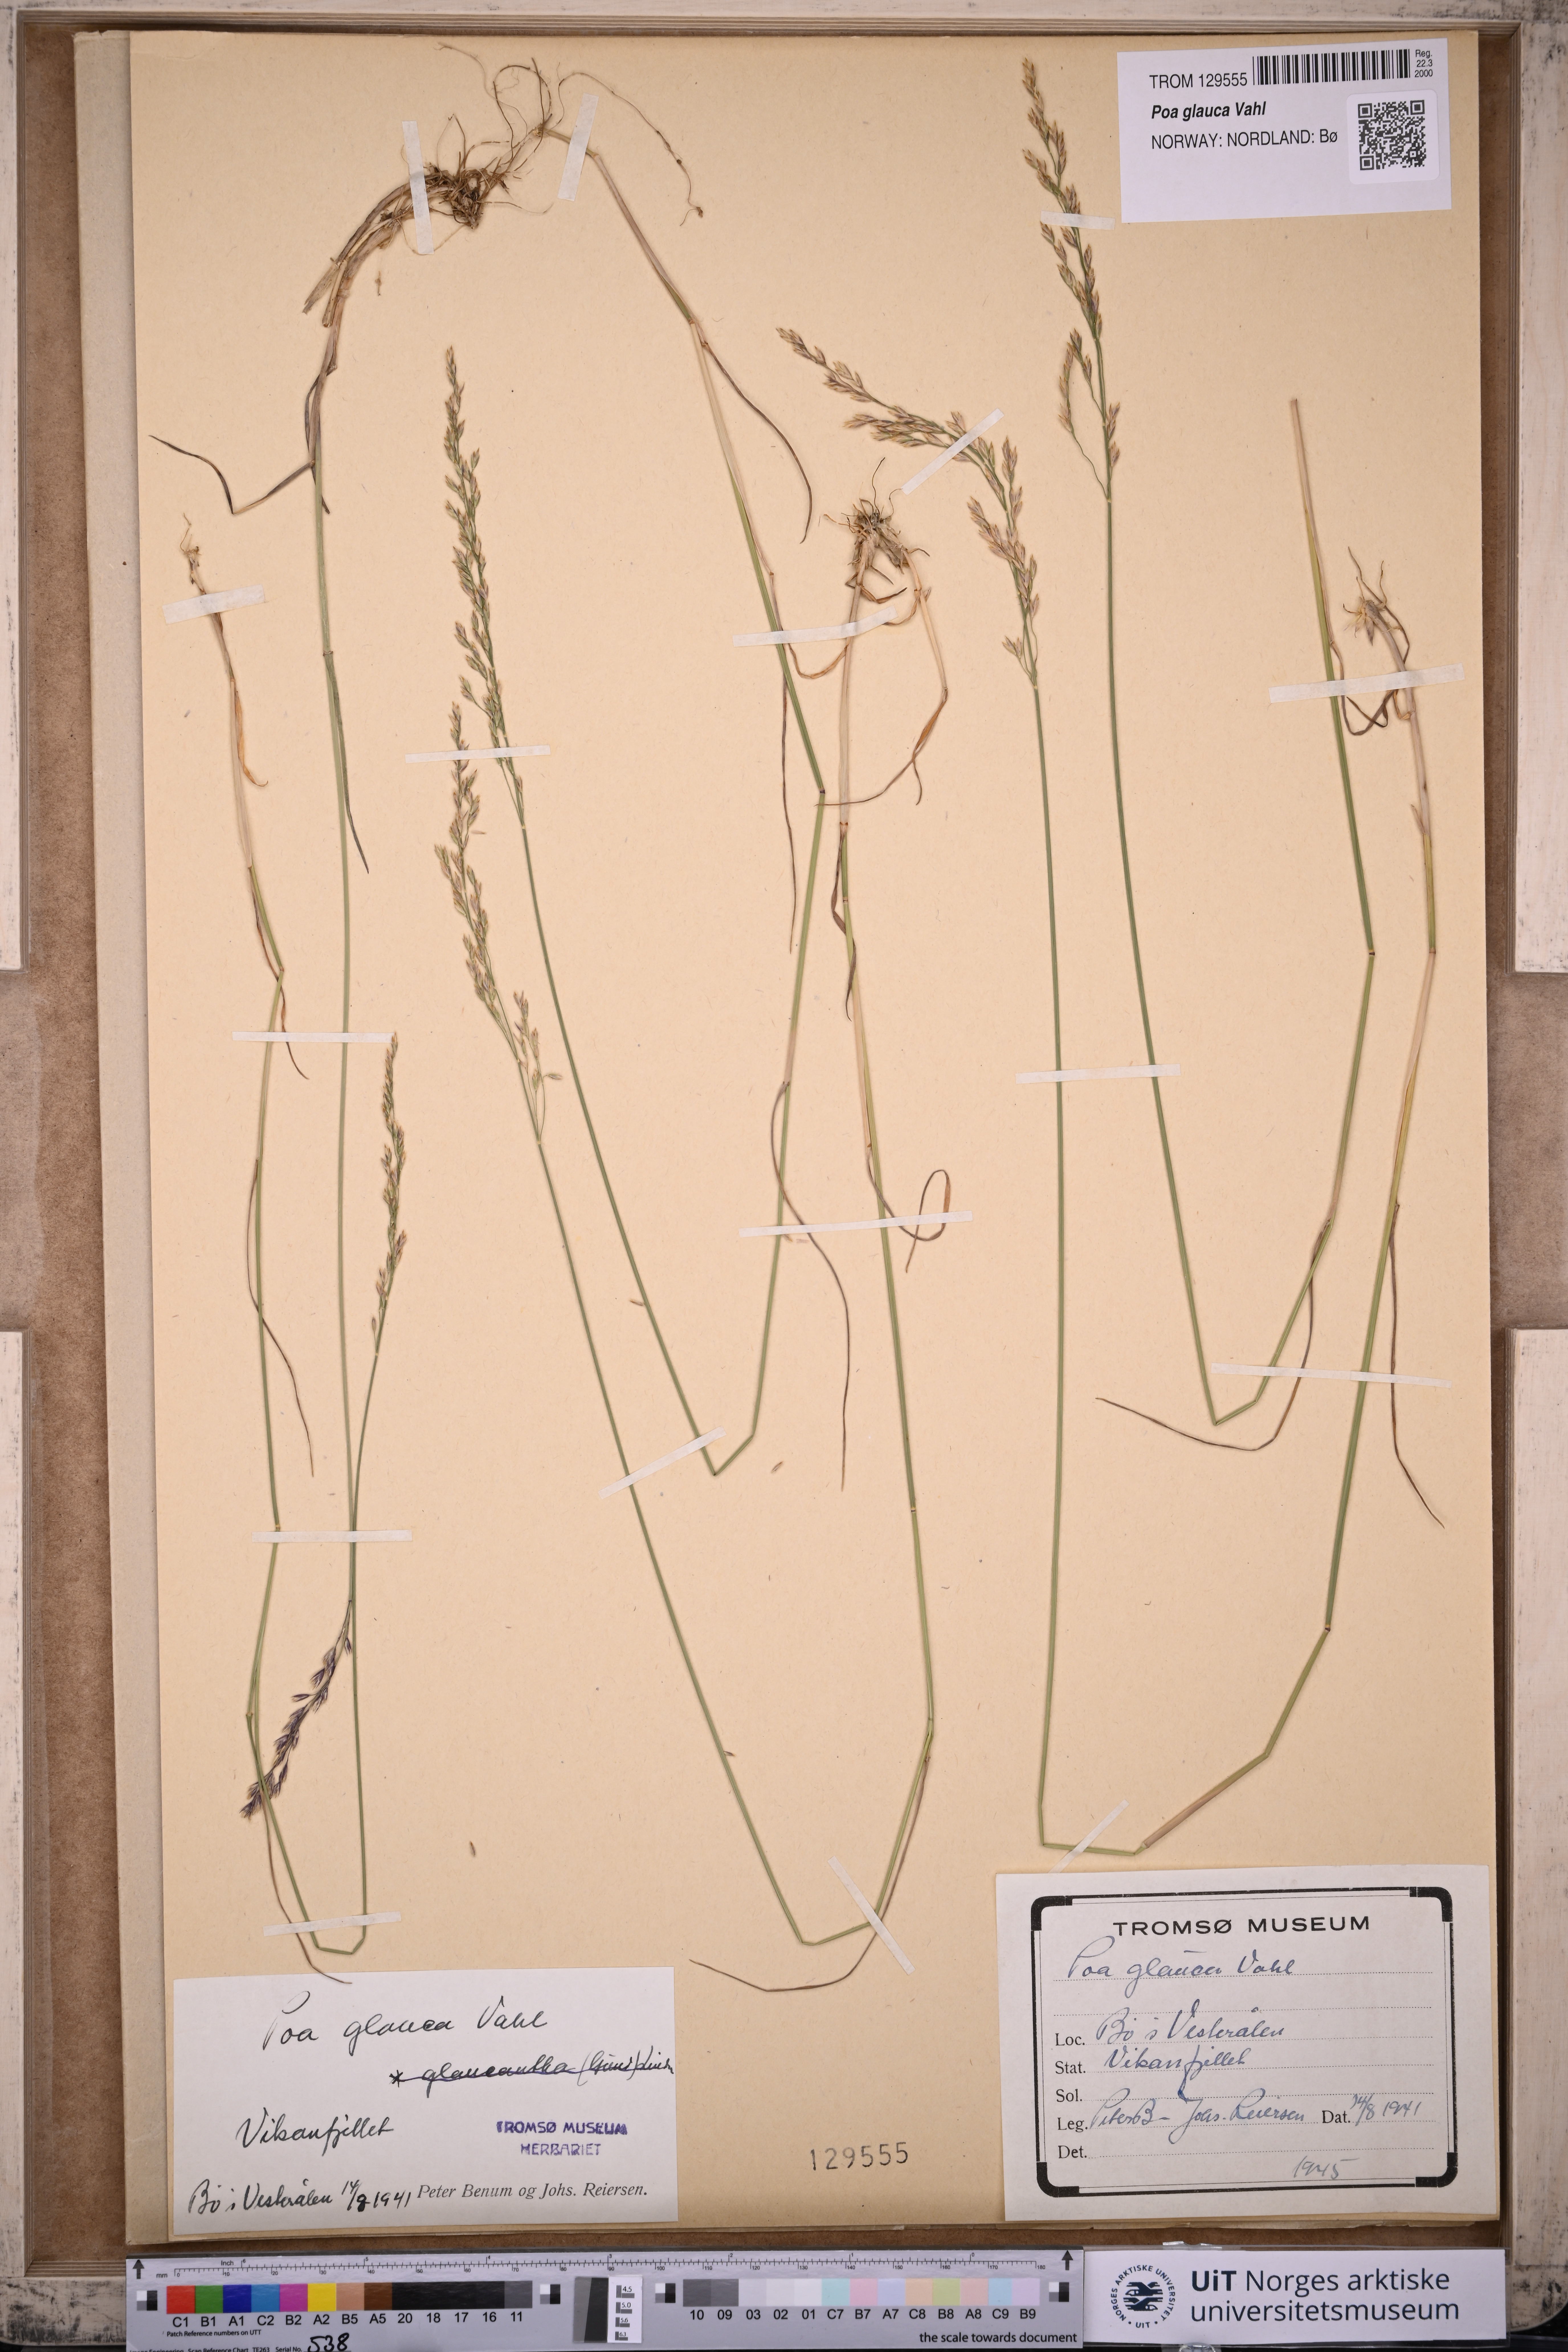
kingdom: Plantae
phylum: Tracheophyta
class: Liliopsida
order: Poales
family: Poaceae
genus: Poa
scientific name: Poa glauca
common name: Glaucous bluegrass
